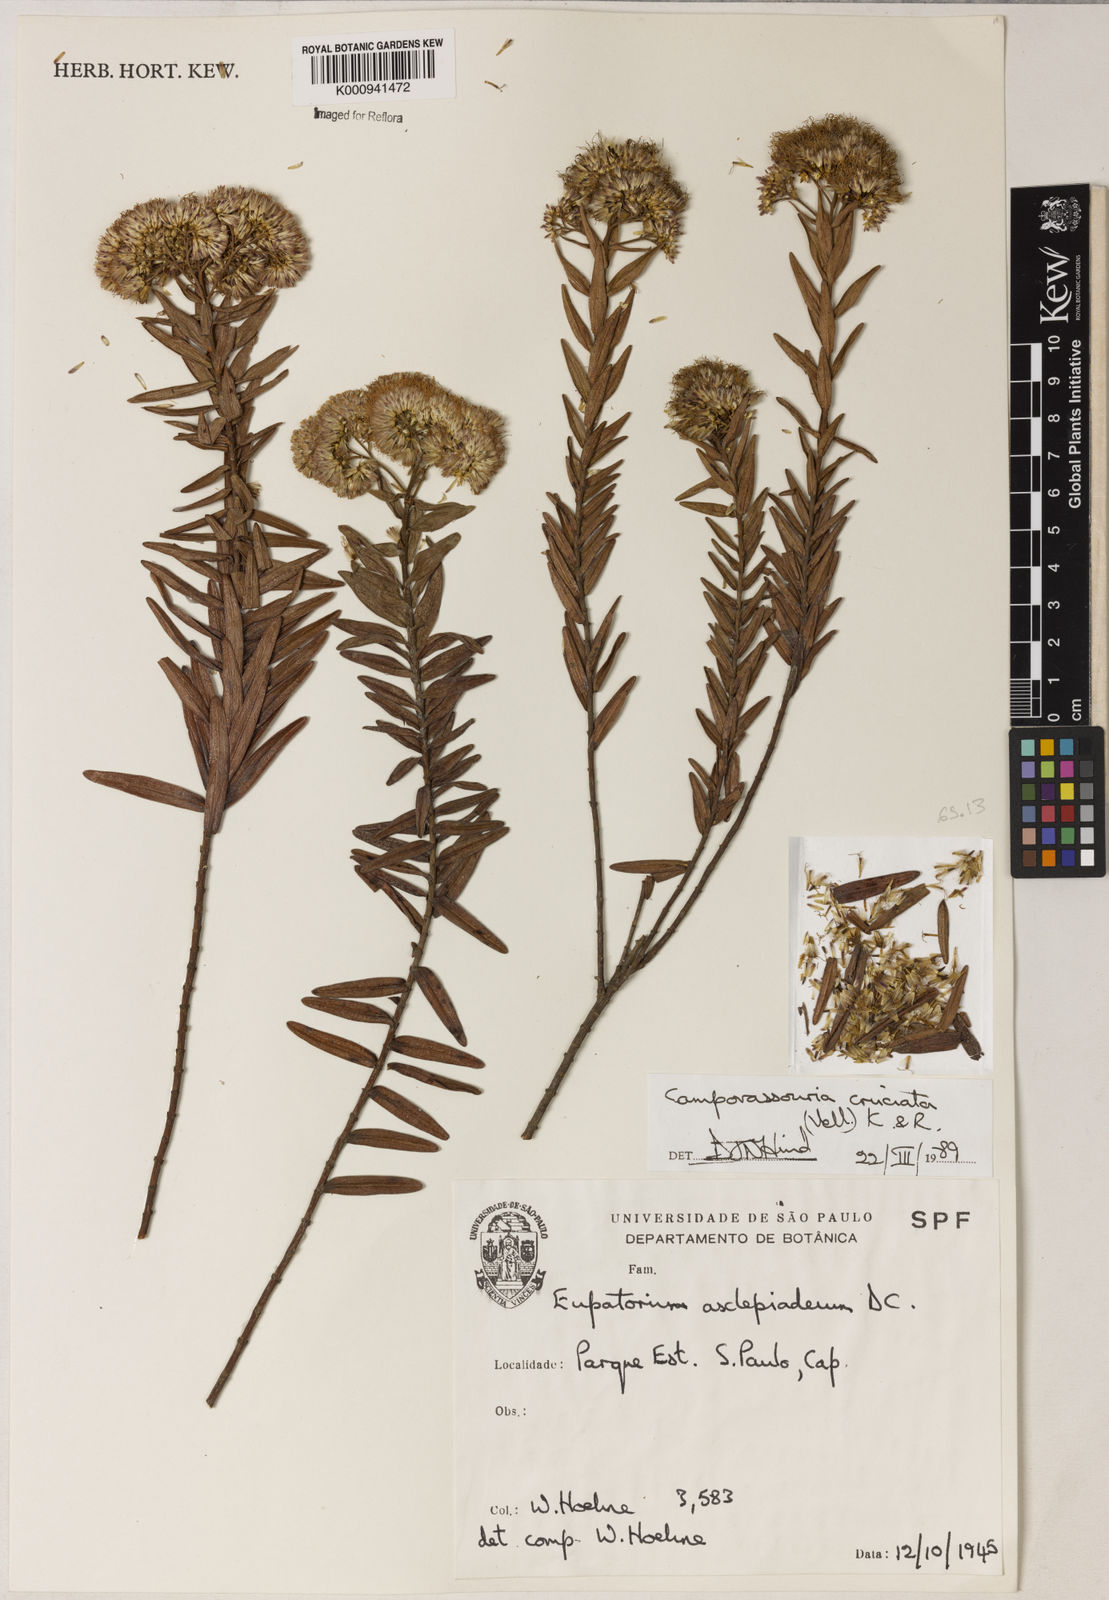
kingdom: Plantae
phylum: Tracheophyta
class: Magnoliopsida
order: Asterales
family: Asteraceae
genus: Campovassouria
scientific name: Campovassouria cruciata
